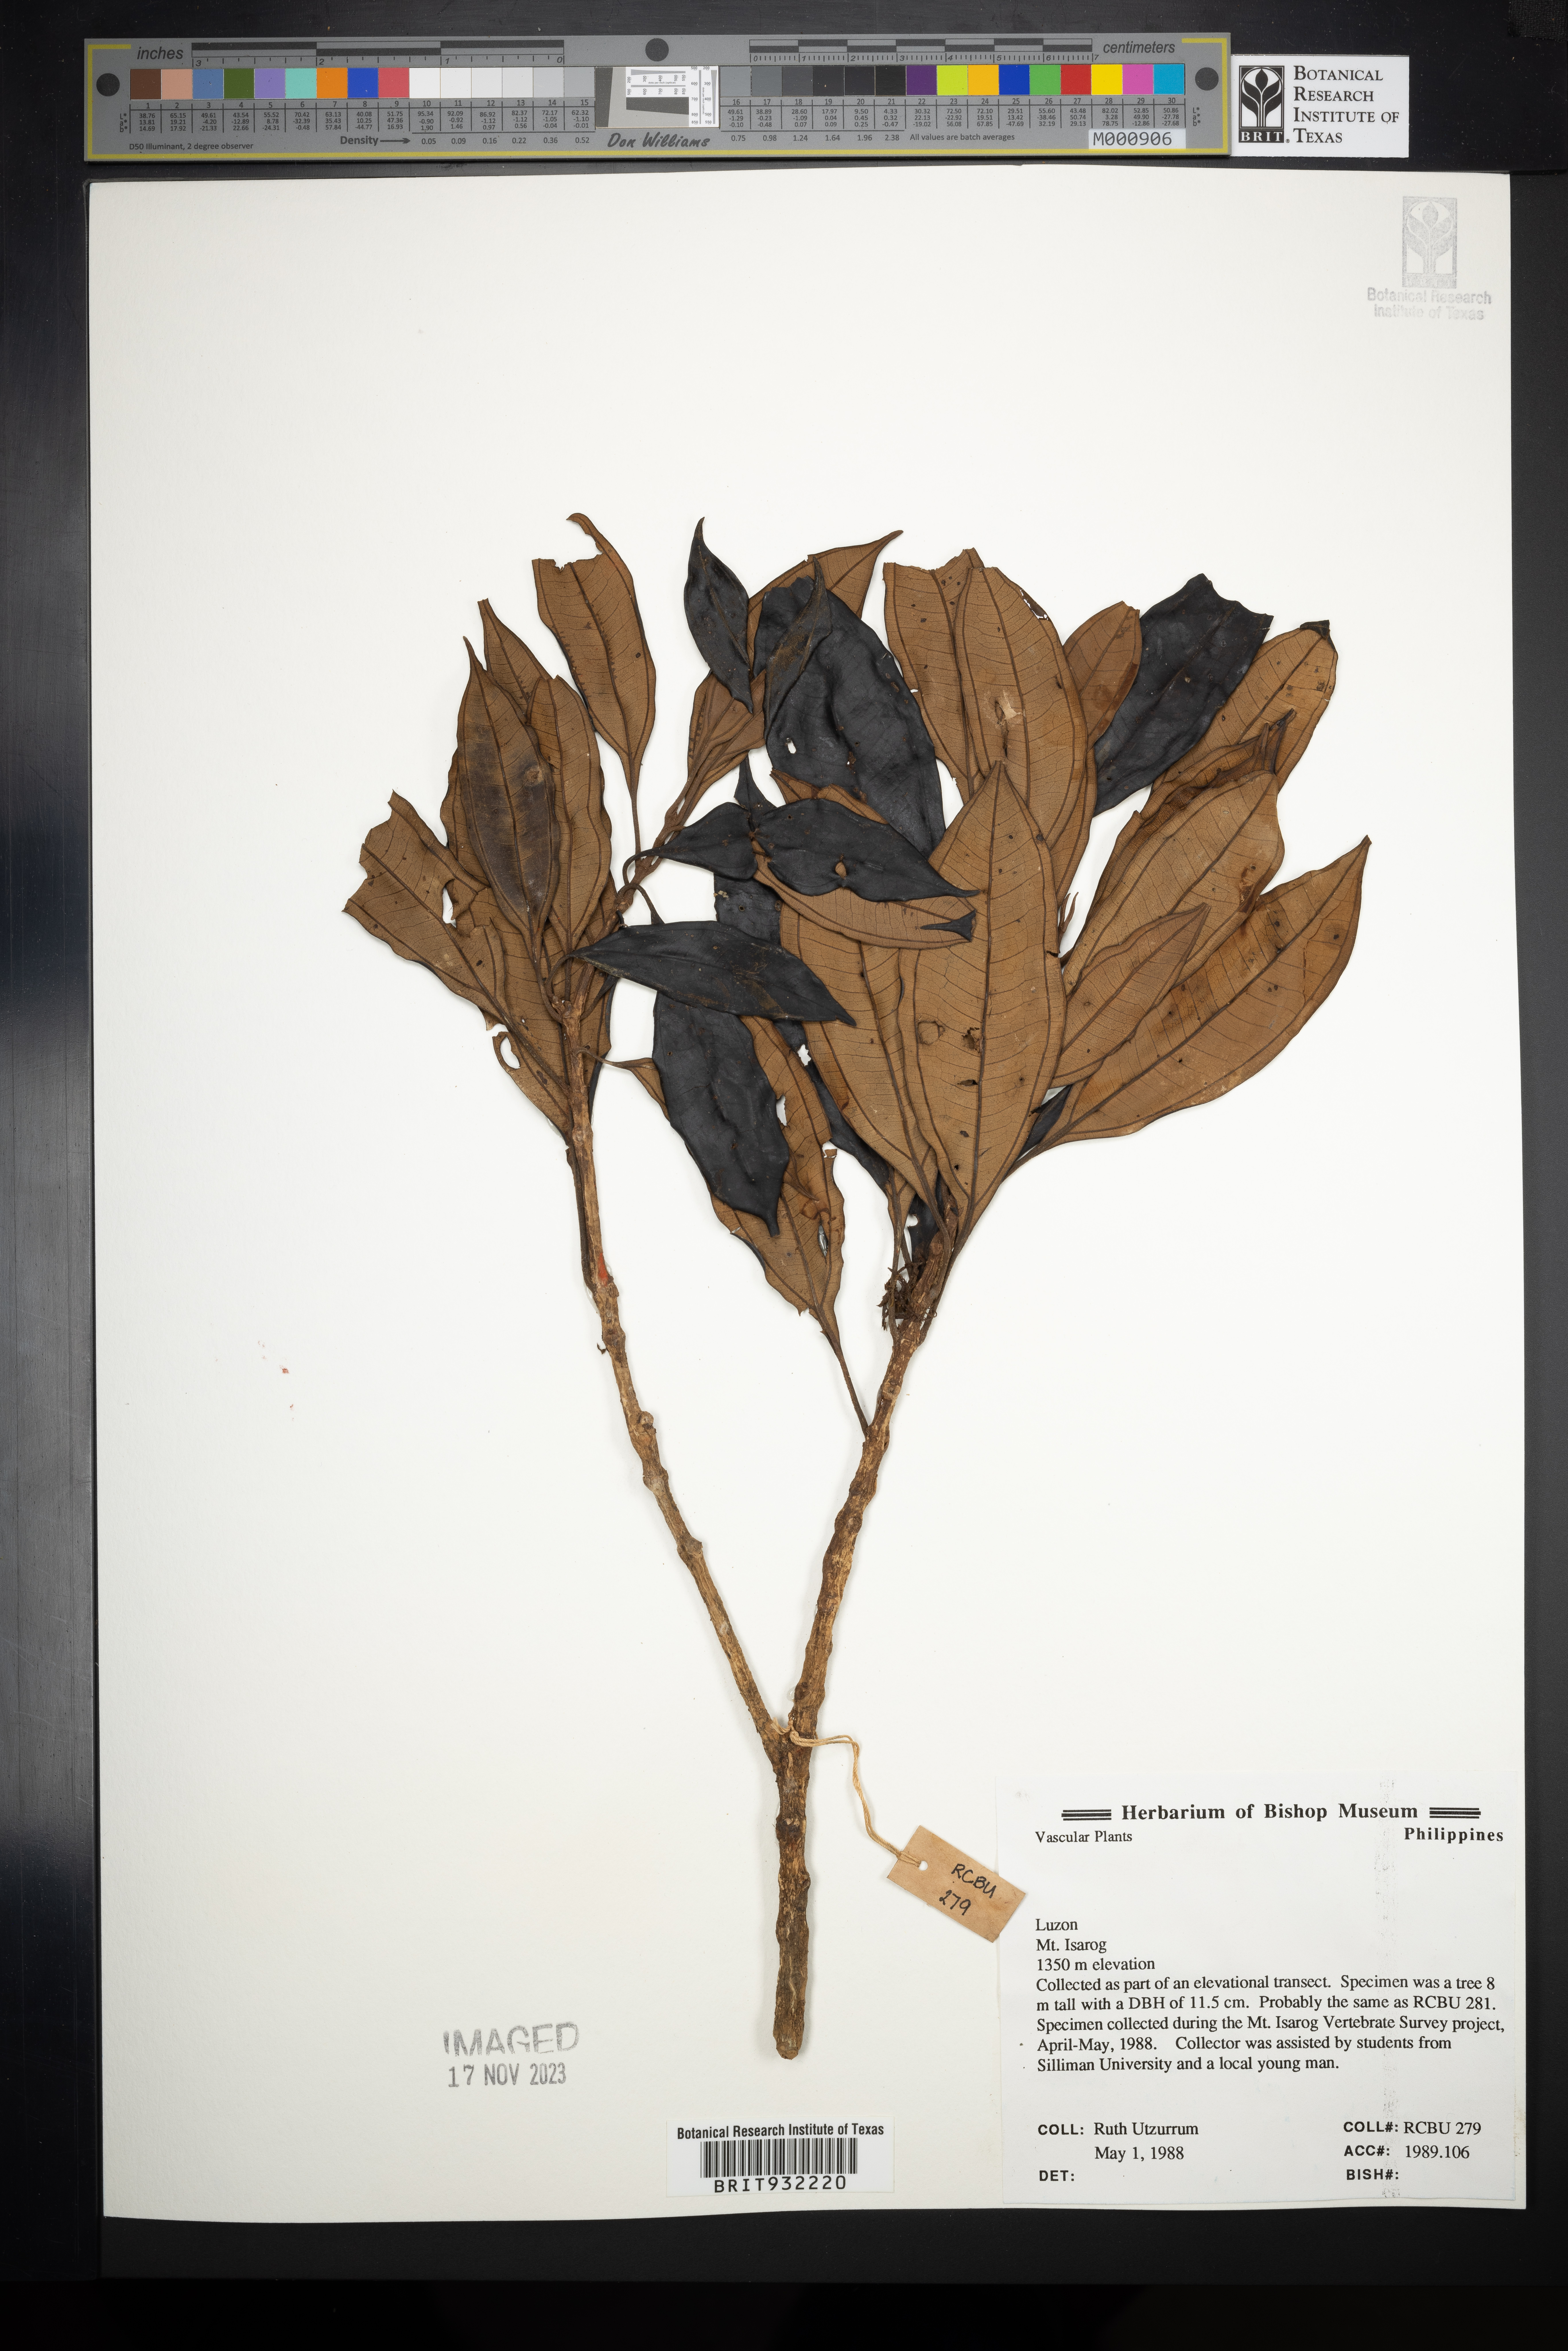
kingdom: Plantae
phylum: Tracheophyta
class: Magnoliopsida
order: Myrtales
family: Melastomataceae
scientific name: Melastomataceae
